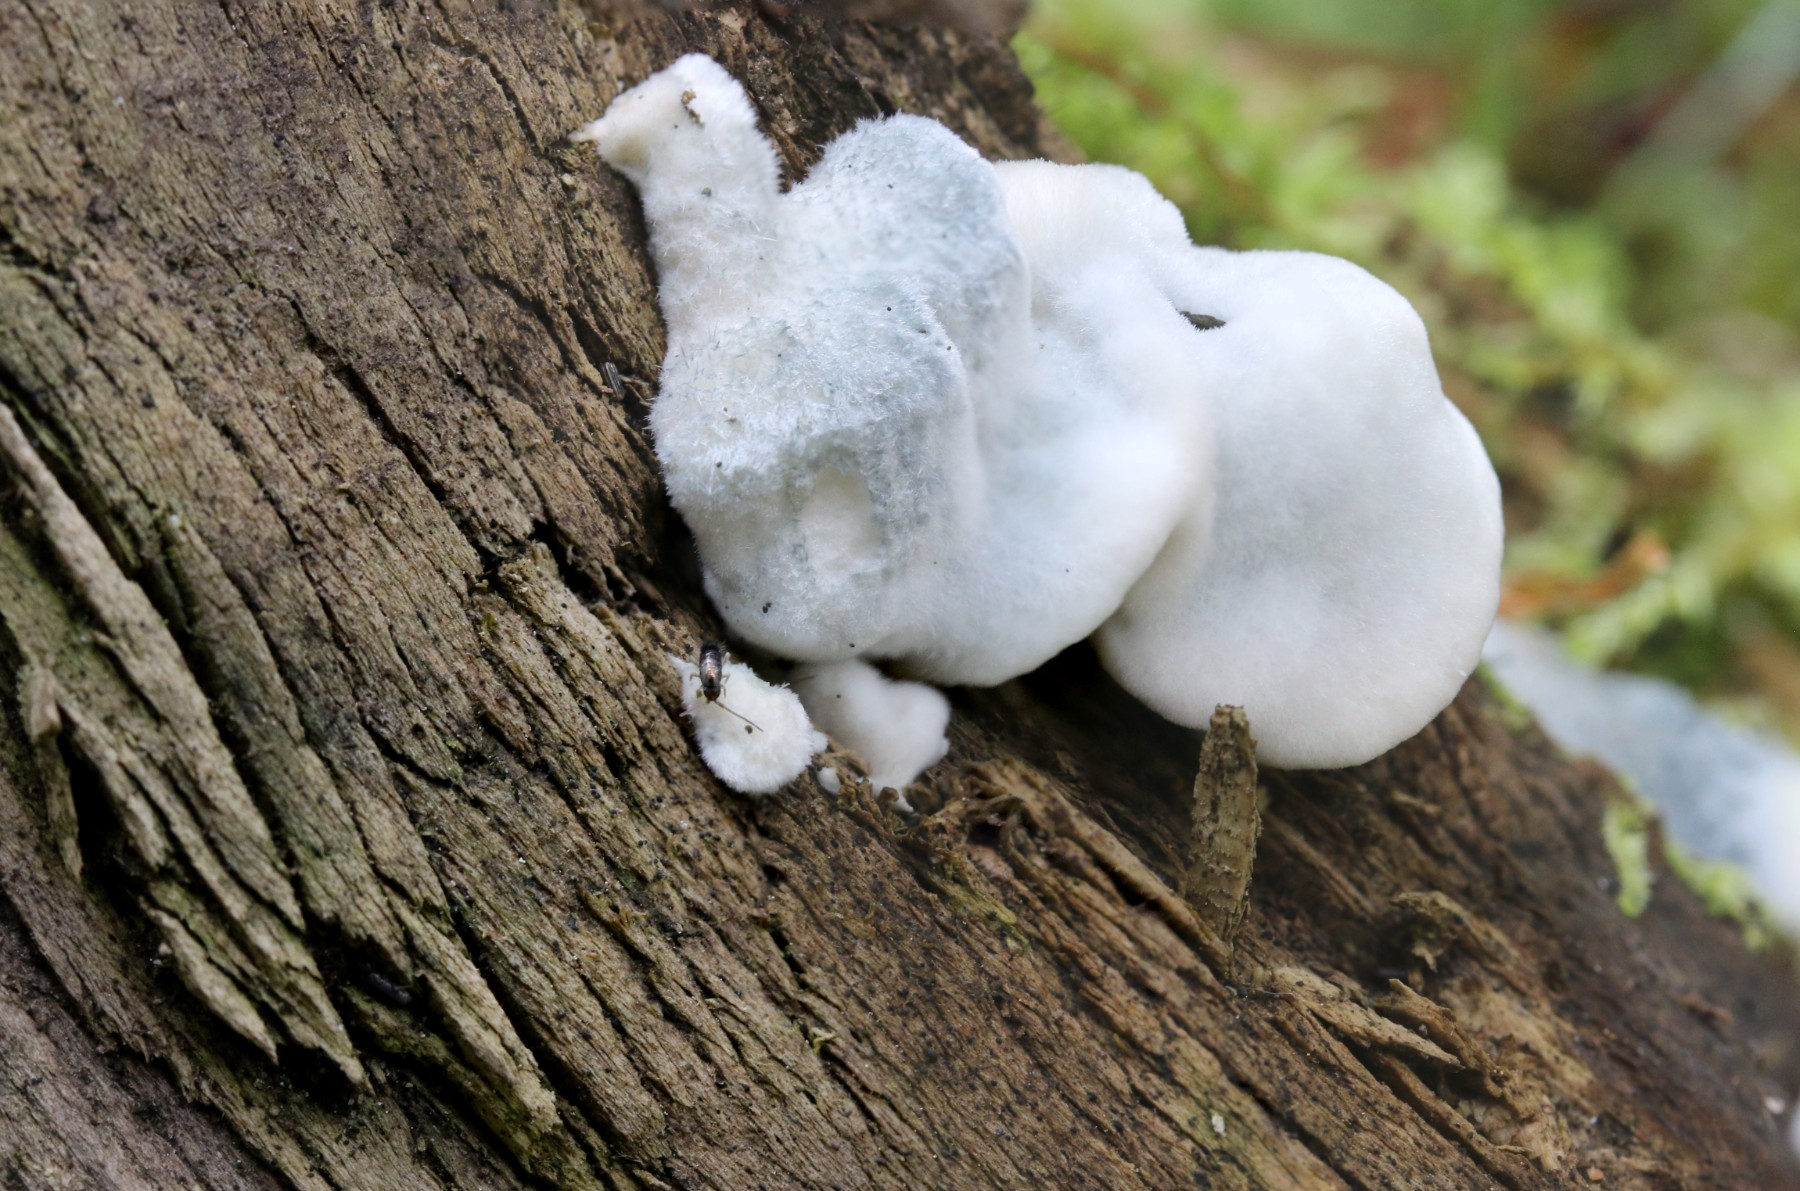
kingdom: Fungi
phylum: Basidiomycota
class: Agaricomycetes
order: Polyporales
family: Polyporaceae
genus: Cyanosporus
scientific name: Cyanosporus caesius
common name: blålig kødporesvamp
